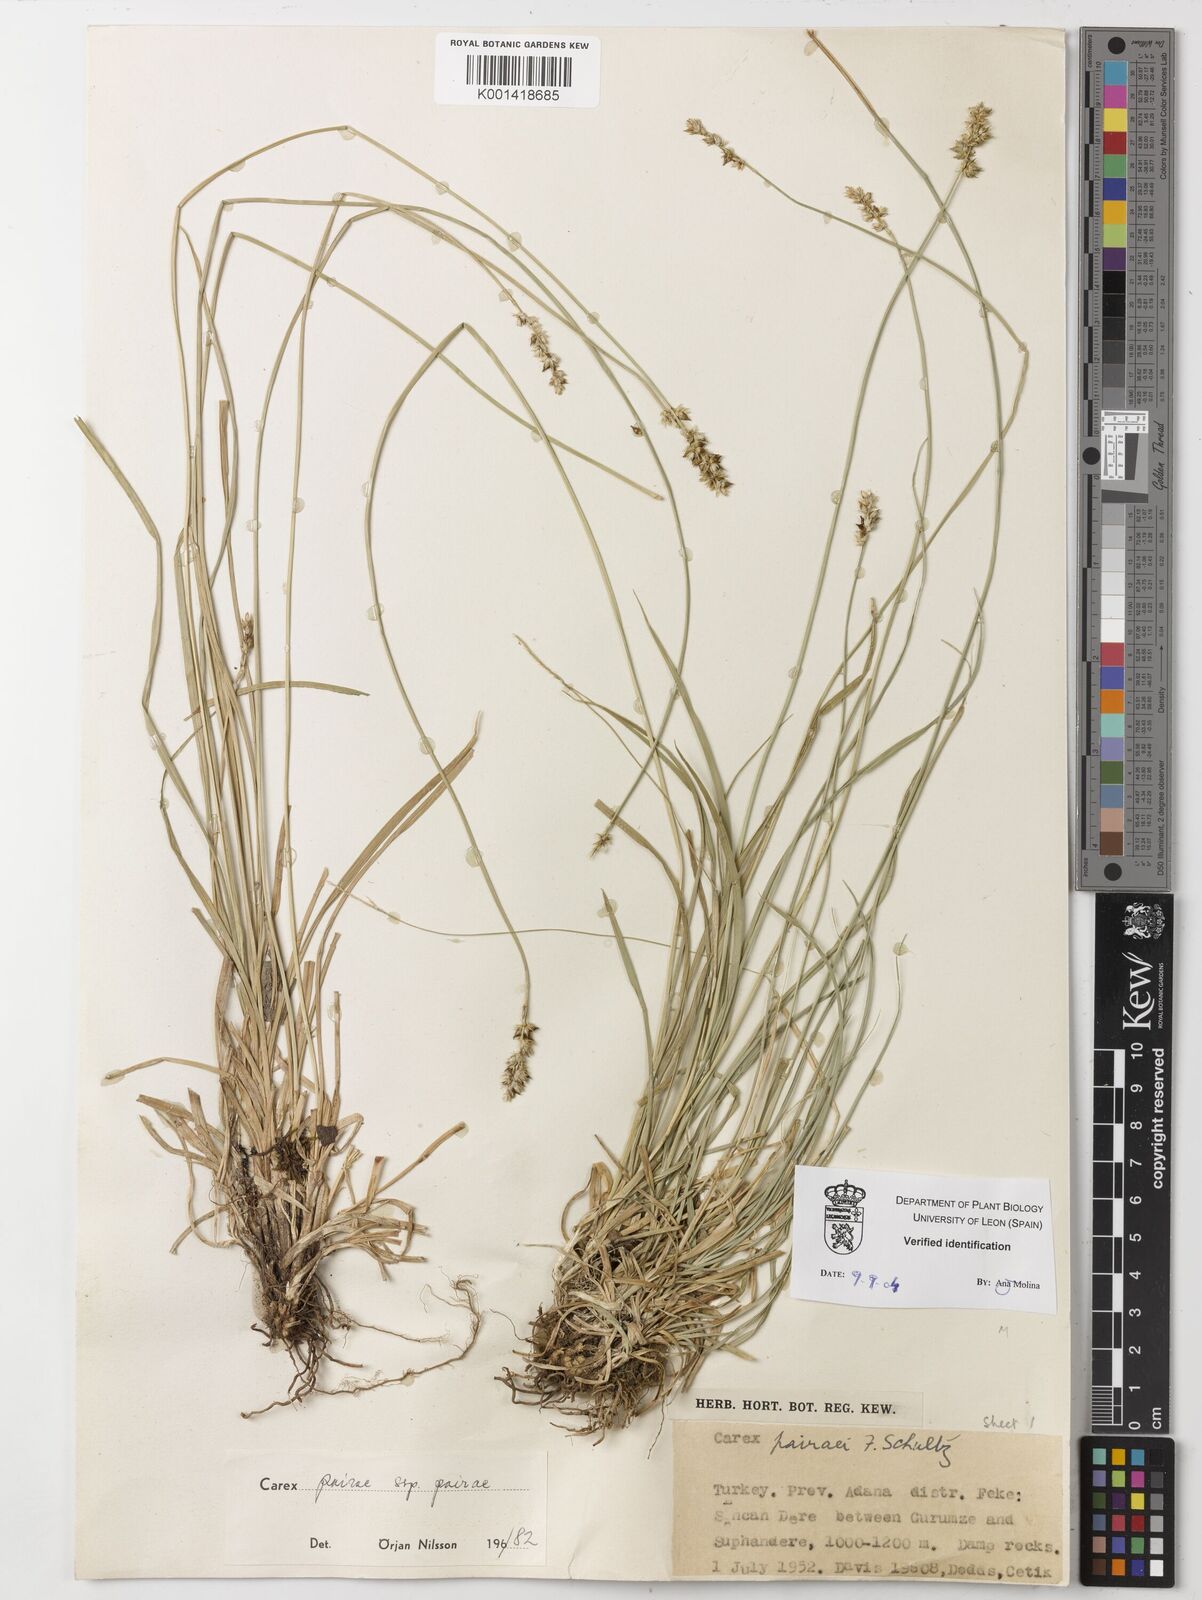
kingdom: Plantae
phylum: Tracheophyta
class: Liliopsida
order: Poales
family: Cyperaceae
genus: Carex
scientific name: Carex pairae
